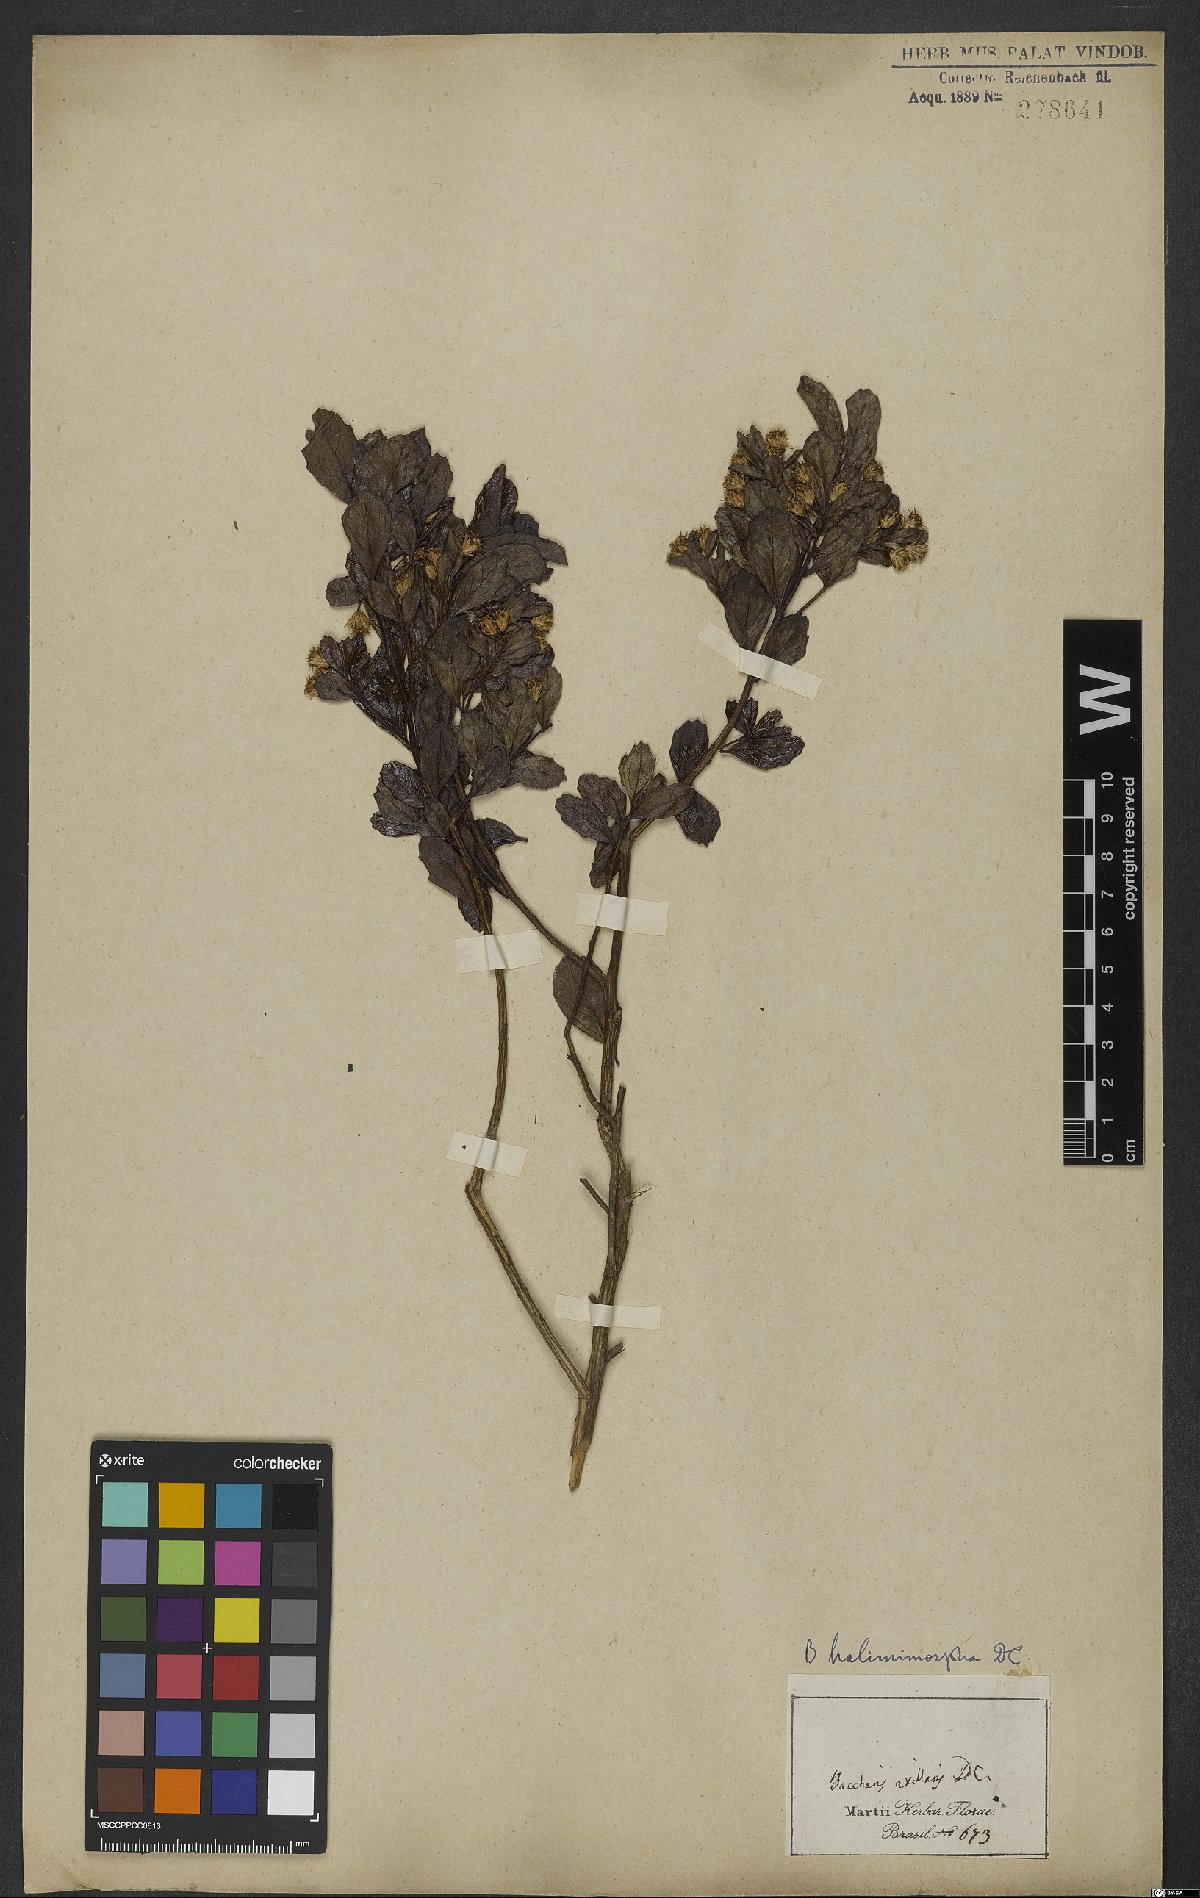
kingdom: Plantae
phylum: Tracheophyta
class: Magnoliopsida
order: Asterales
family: Asteraceae
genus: Baccharis
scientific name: Baccharis retusa
